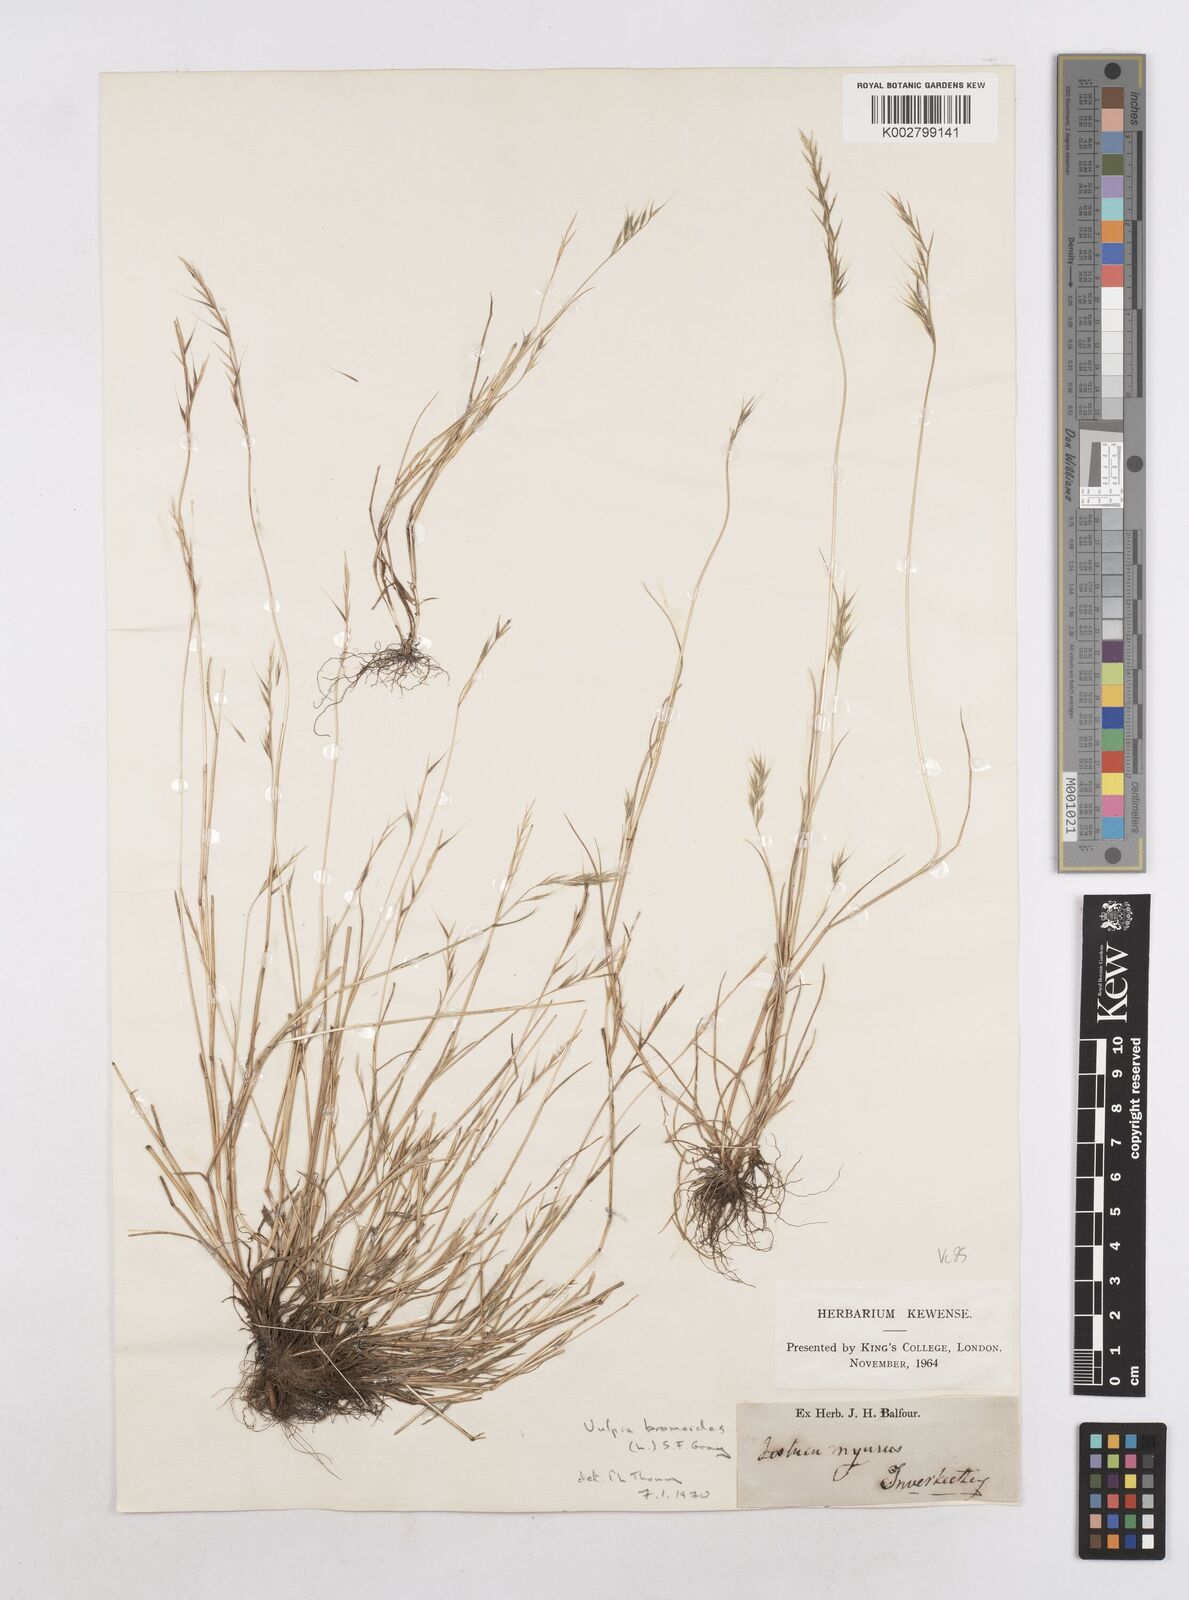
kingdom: Plantae
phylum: Tracheophyta
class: Liliopsida
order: Poales
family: Poaceae
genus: Festuca
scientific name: Festuca bromoides
